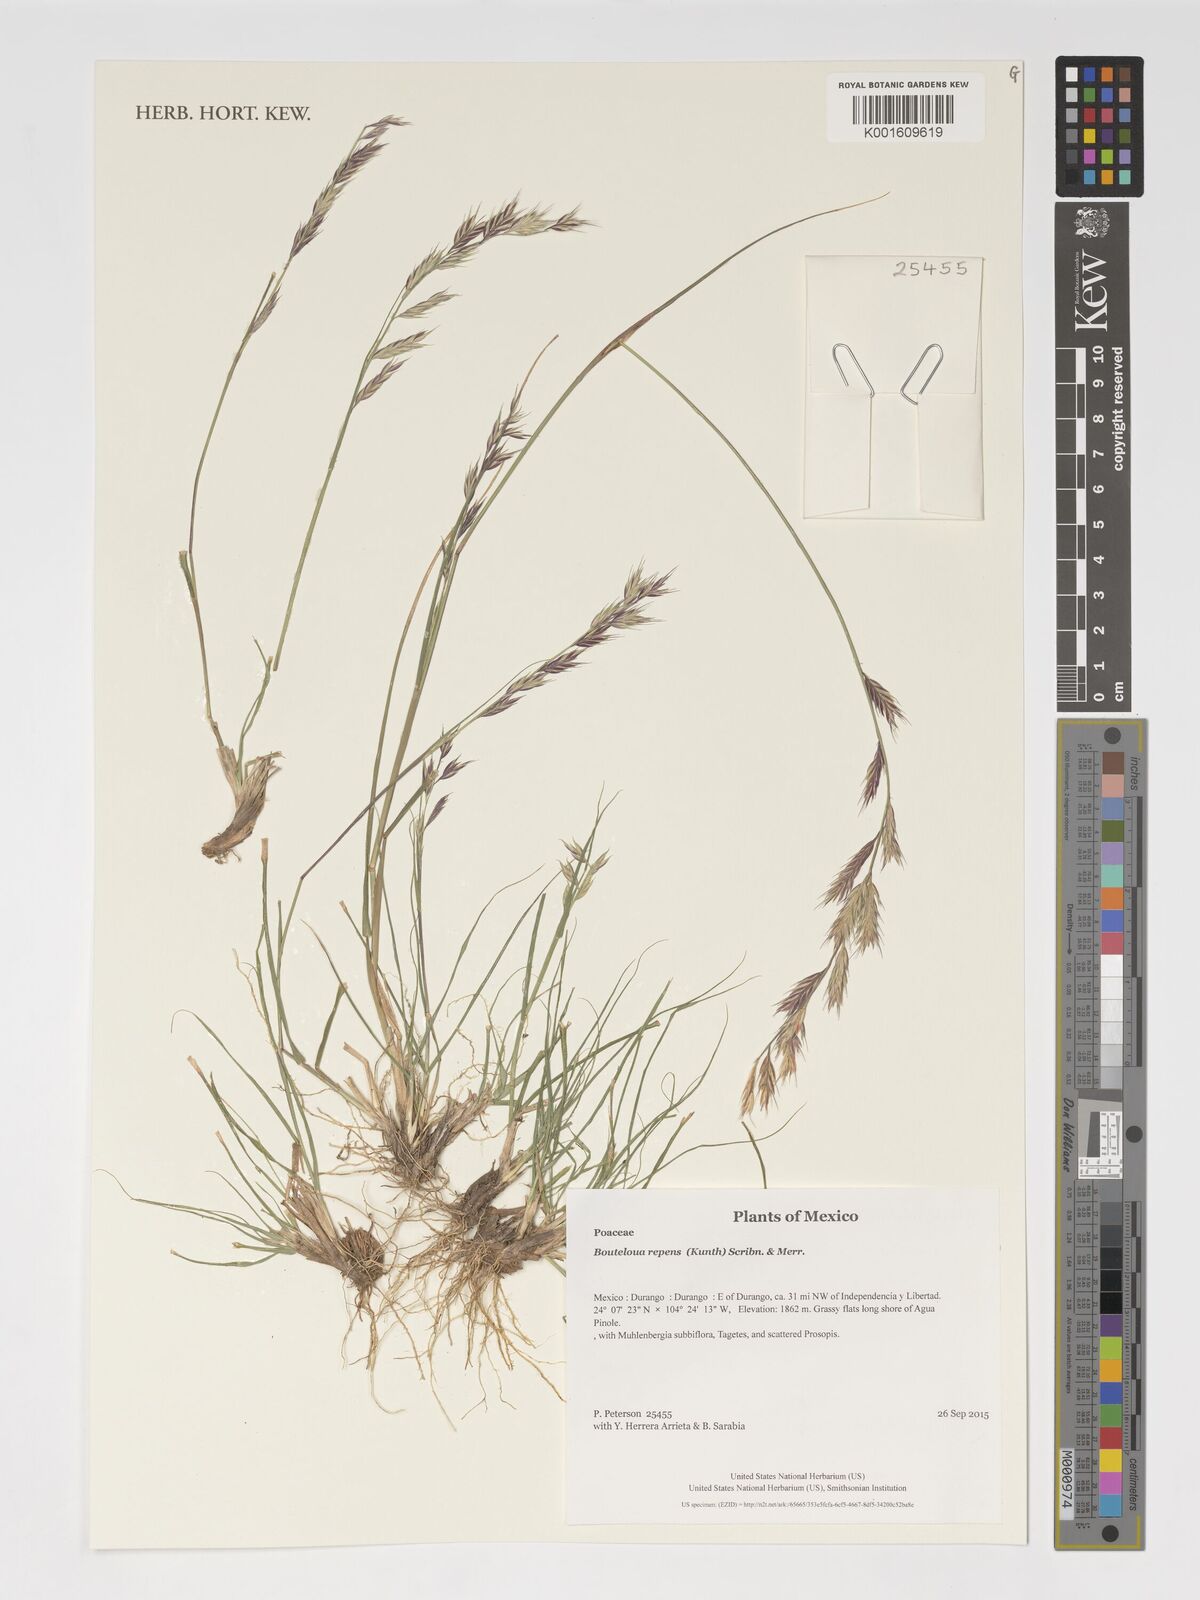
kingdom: Plantae
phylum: Tracheophyta
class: Liliopsida
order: Poales
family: Poaceae
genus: Bouteloua
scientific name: Bouteloua repens
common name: Slender grama
